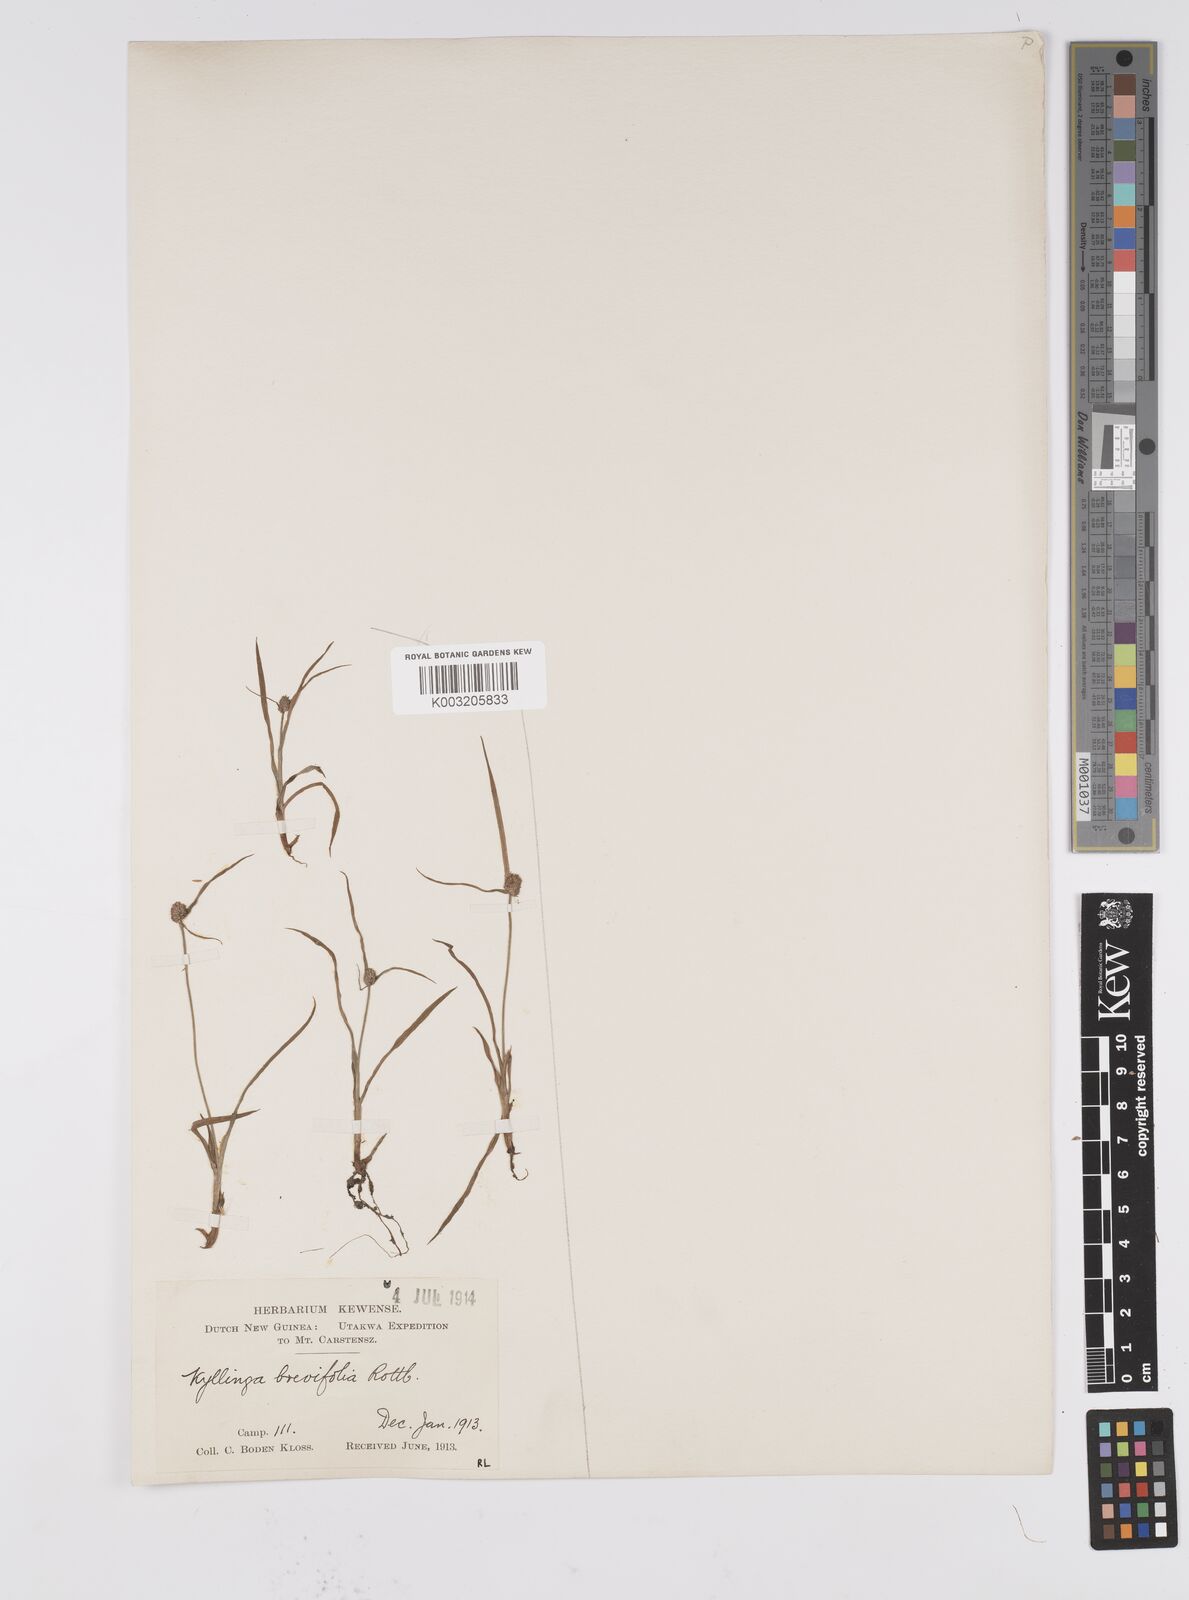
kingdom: Plantae
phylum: Tracheophyta
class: Liliopsida
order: Poales
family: Cyperaceae
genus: Cyperus
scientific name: Cyperus brevifolius
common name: Globe kyllinga
